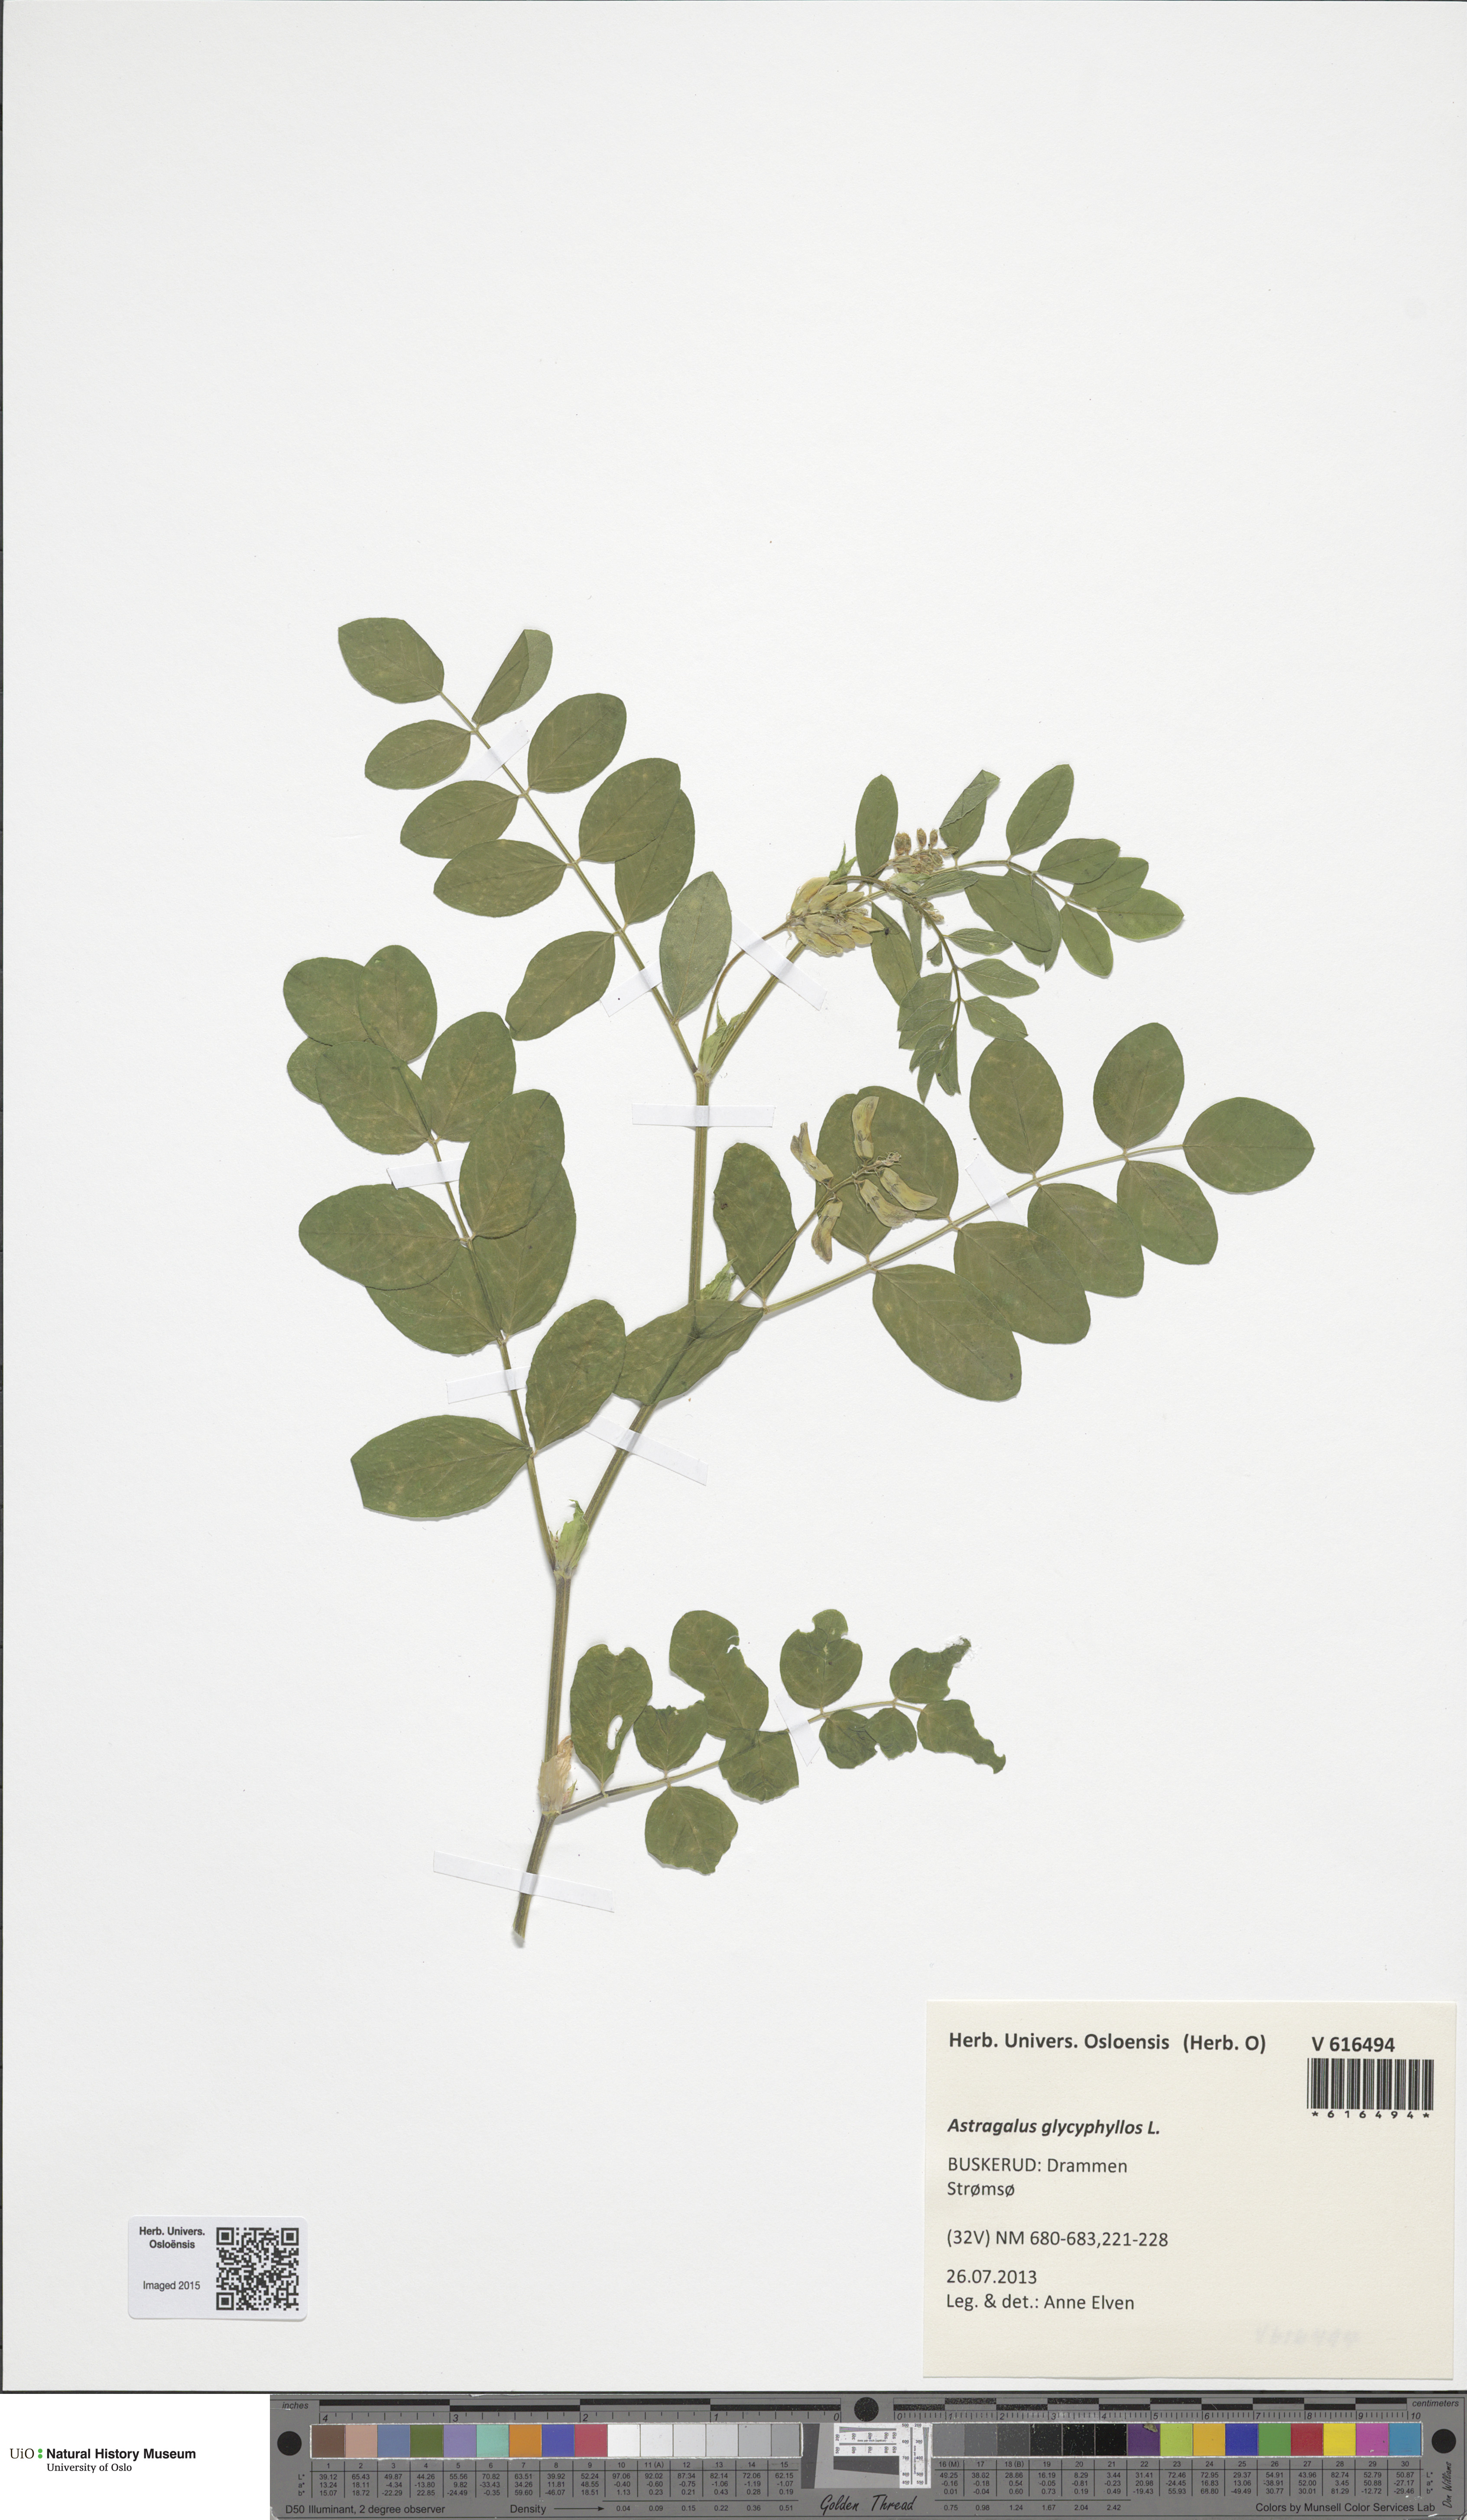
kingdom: Plantae
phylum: Tracheophyta
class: Magnoliopsida
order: Fabales
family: Fabaceae
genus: Astragalus
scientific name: Astragalus glycyphyllos
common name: Wild liquorice
